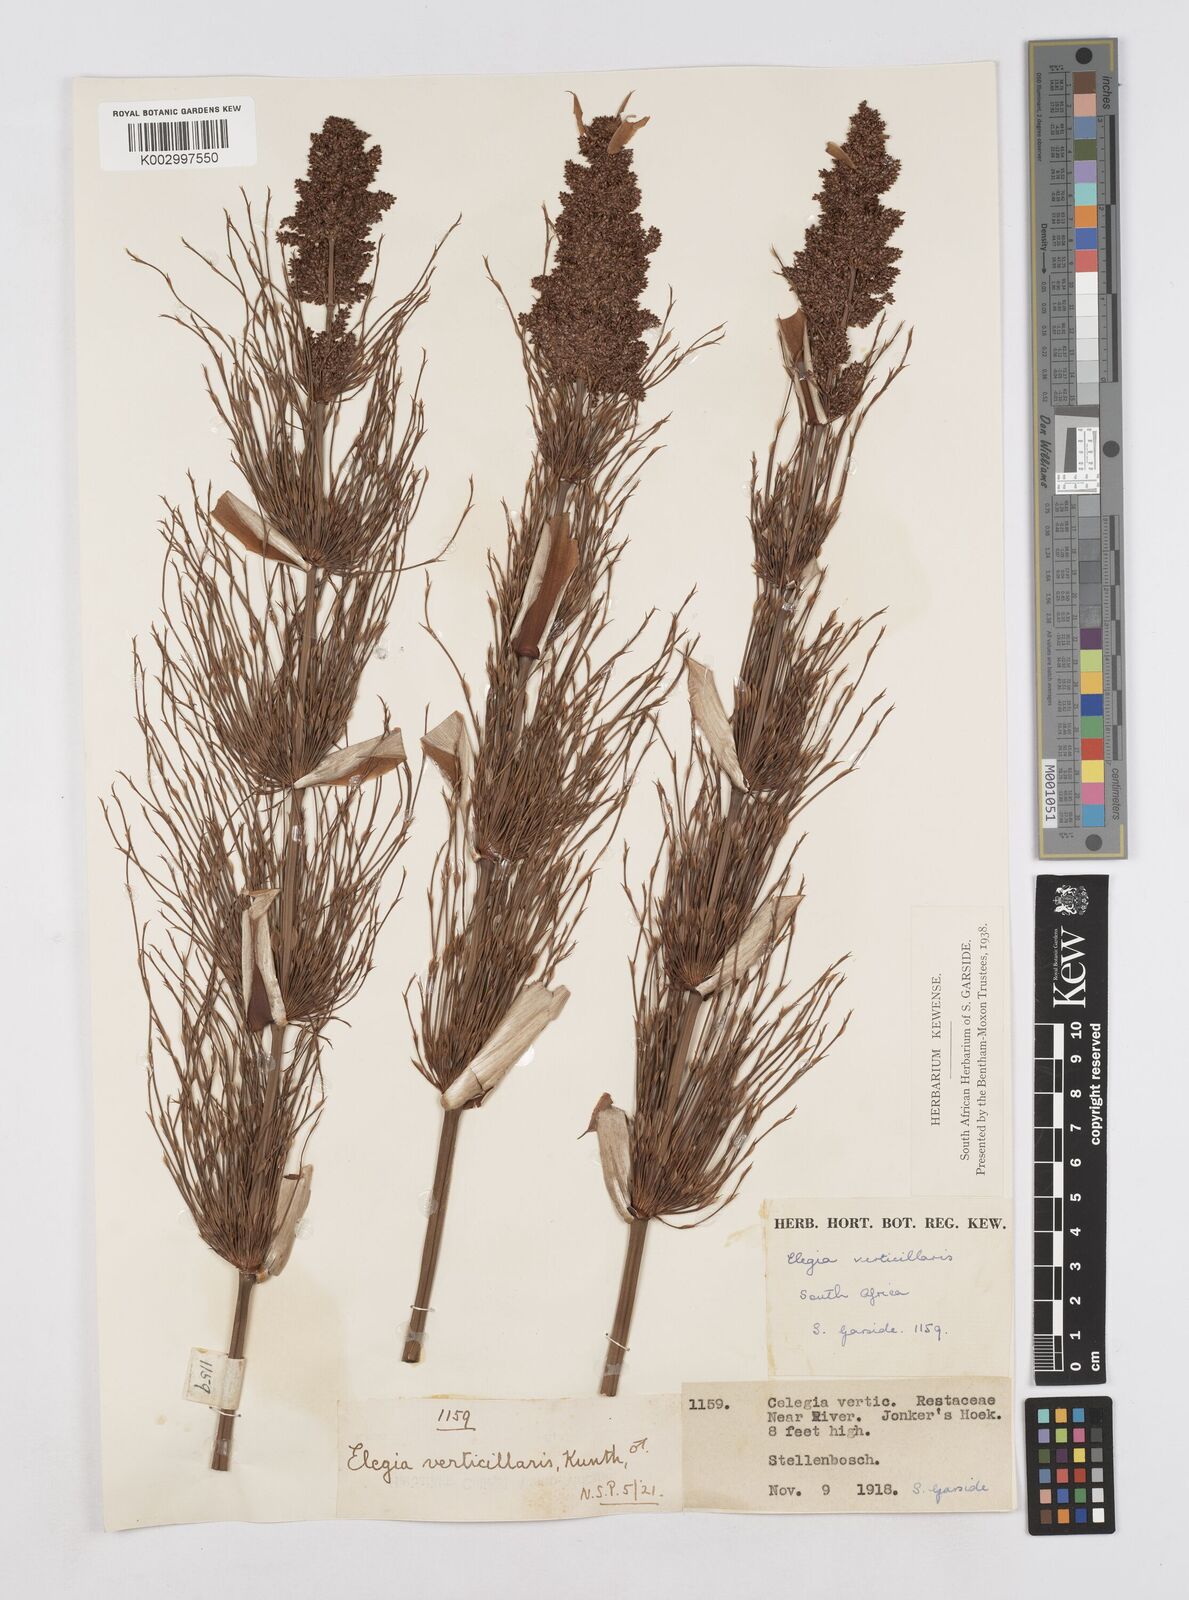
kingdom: Plantae
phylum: Tracheophyta
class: Liliopsida
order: Poales
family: Restionaceae
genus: Elegia
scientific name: Elegia capensis
